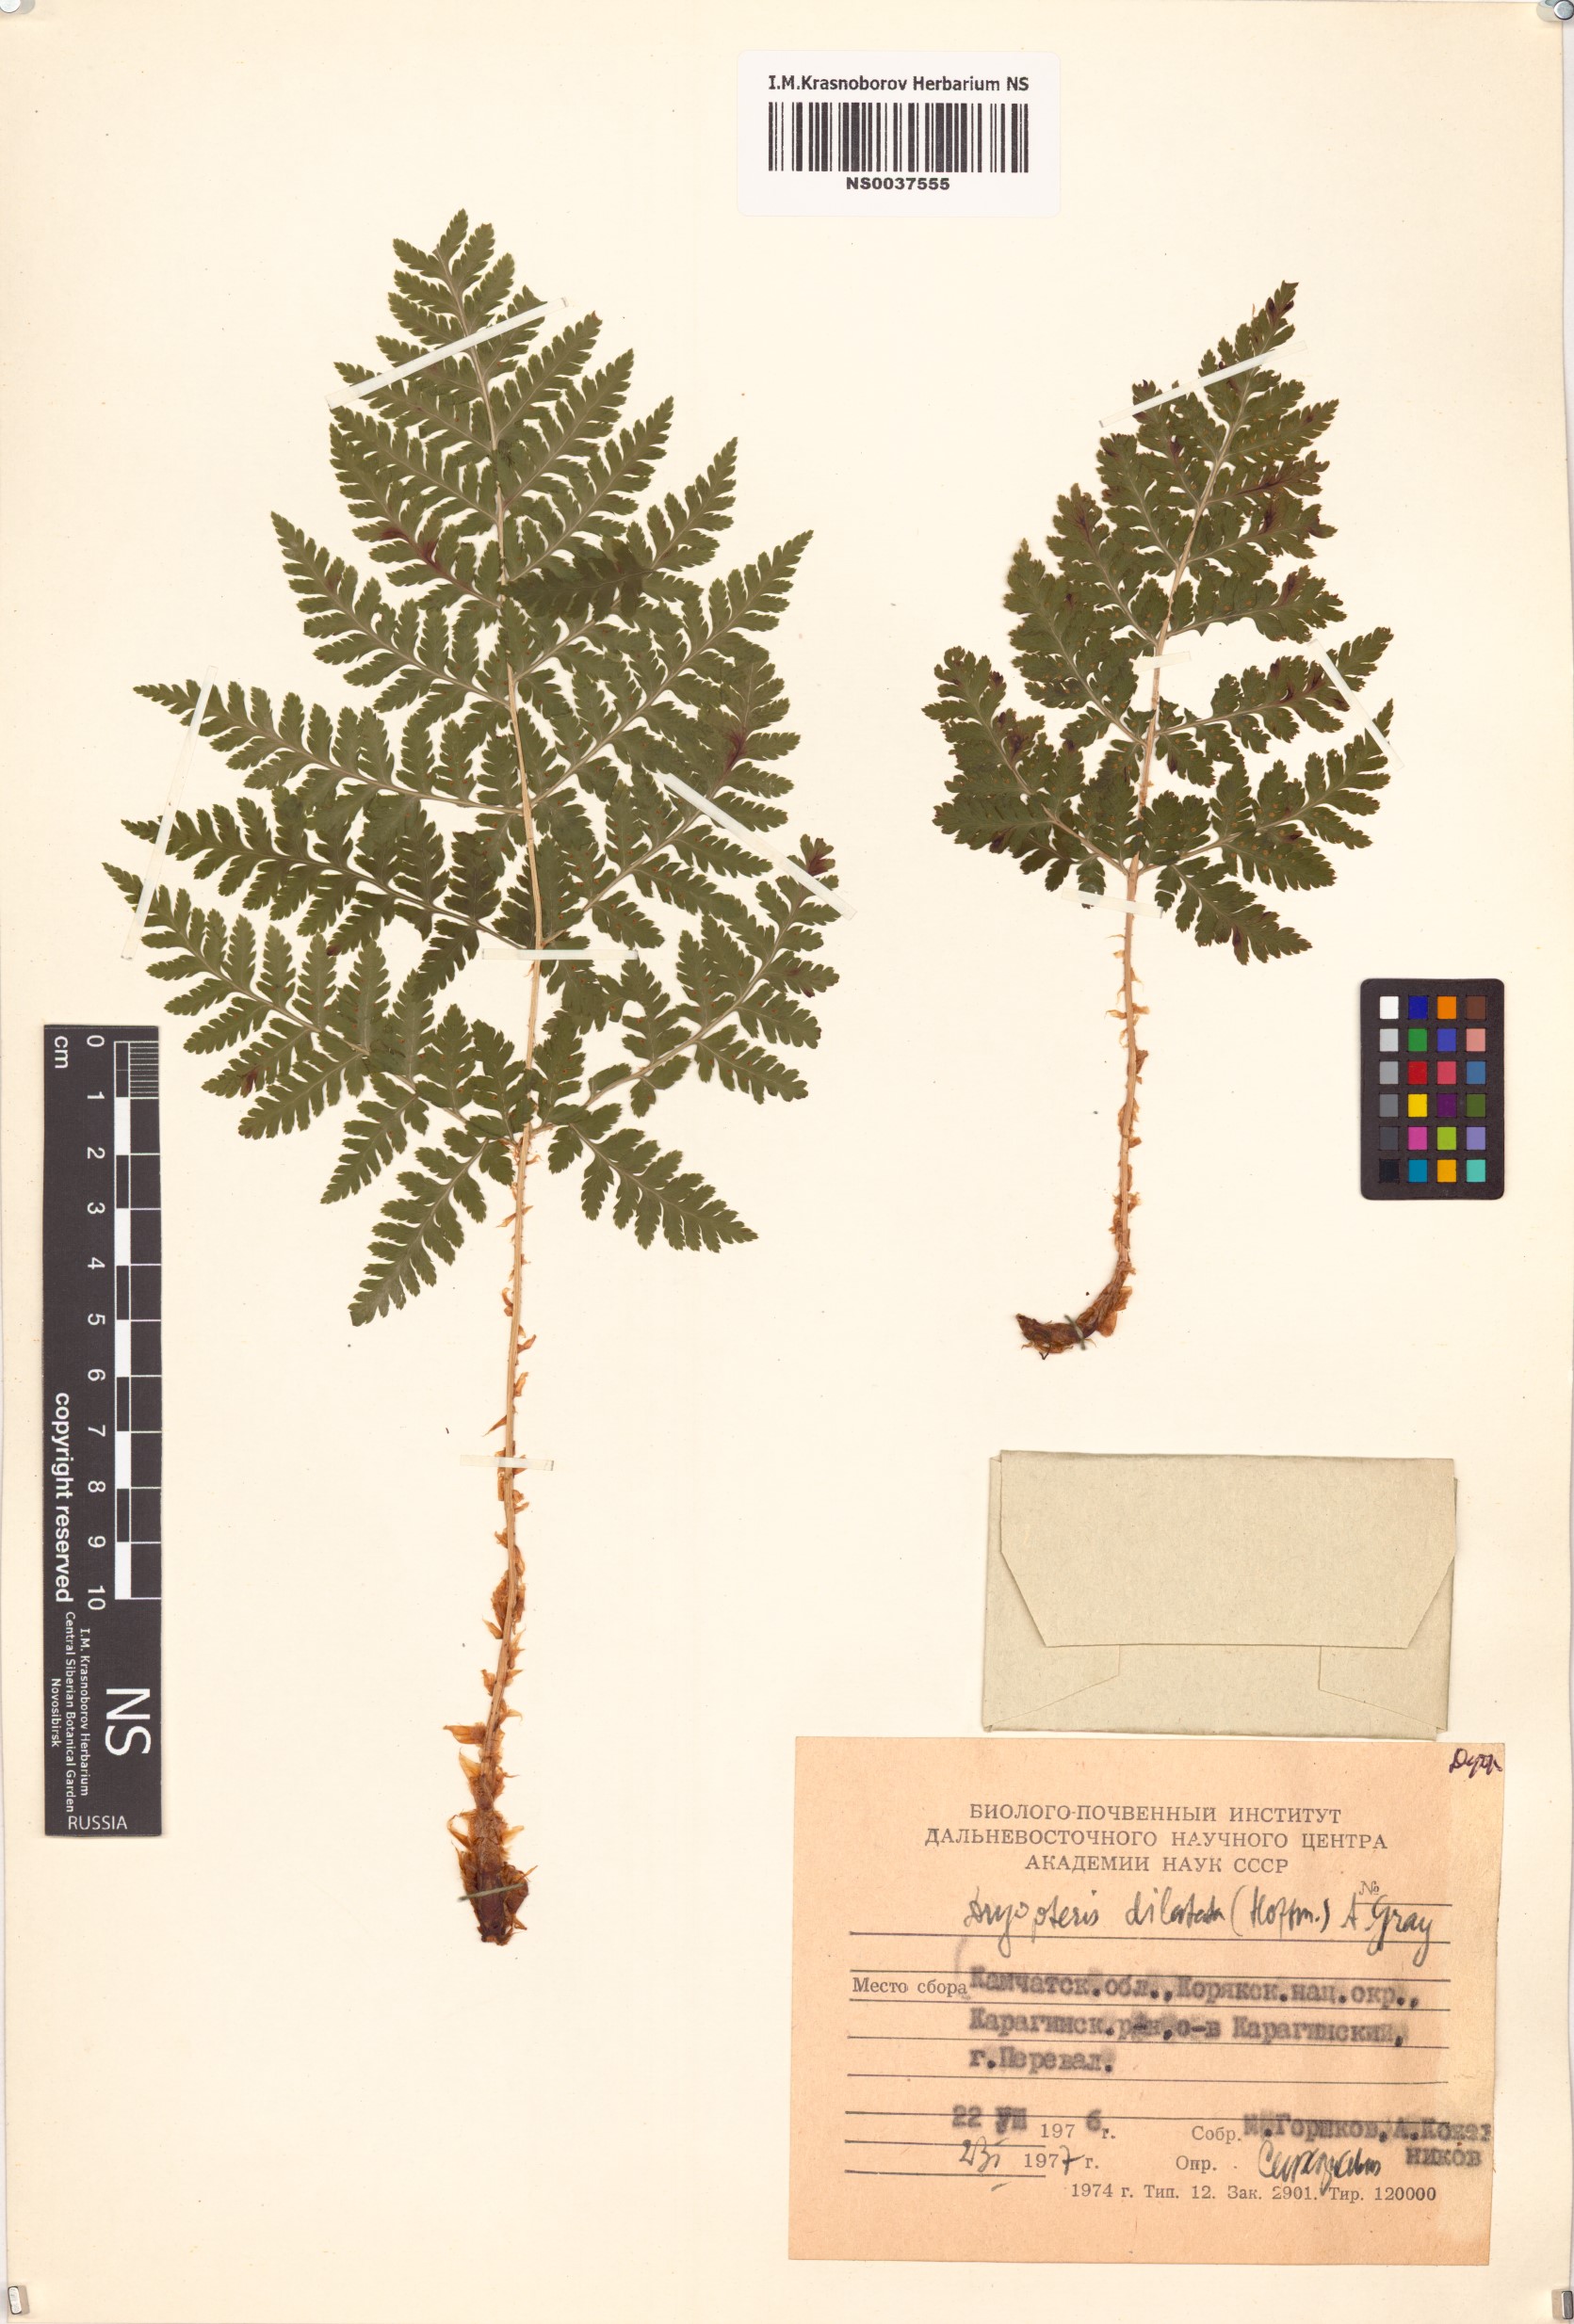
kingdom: Plantae
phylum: Tracheophyta
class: Polypodiopsida
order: Polypodiales
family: Dryopteridaceae
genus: Dryopteris
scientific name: Dryopteris dilatata
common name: Broad buckler-fern
